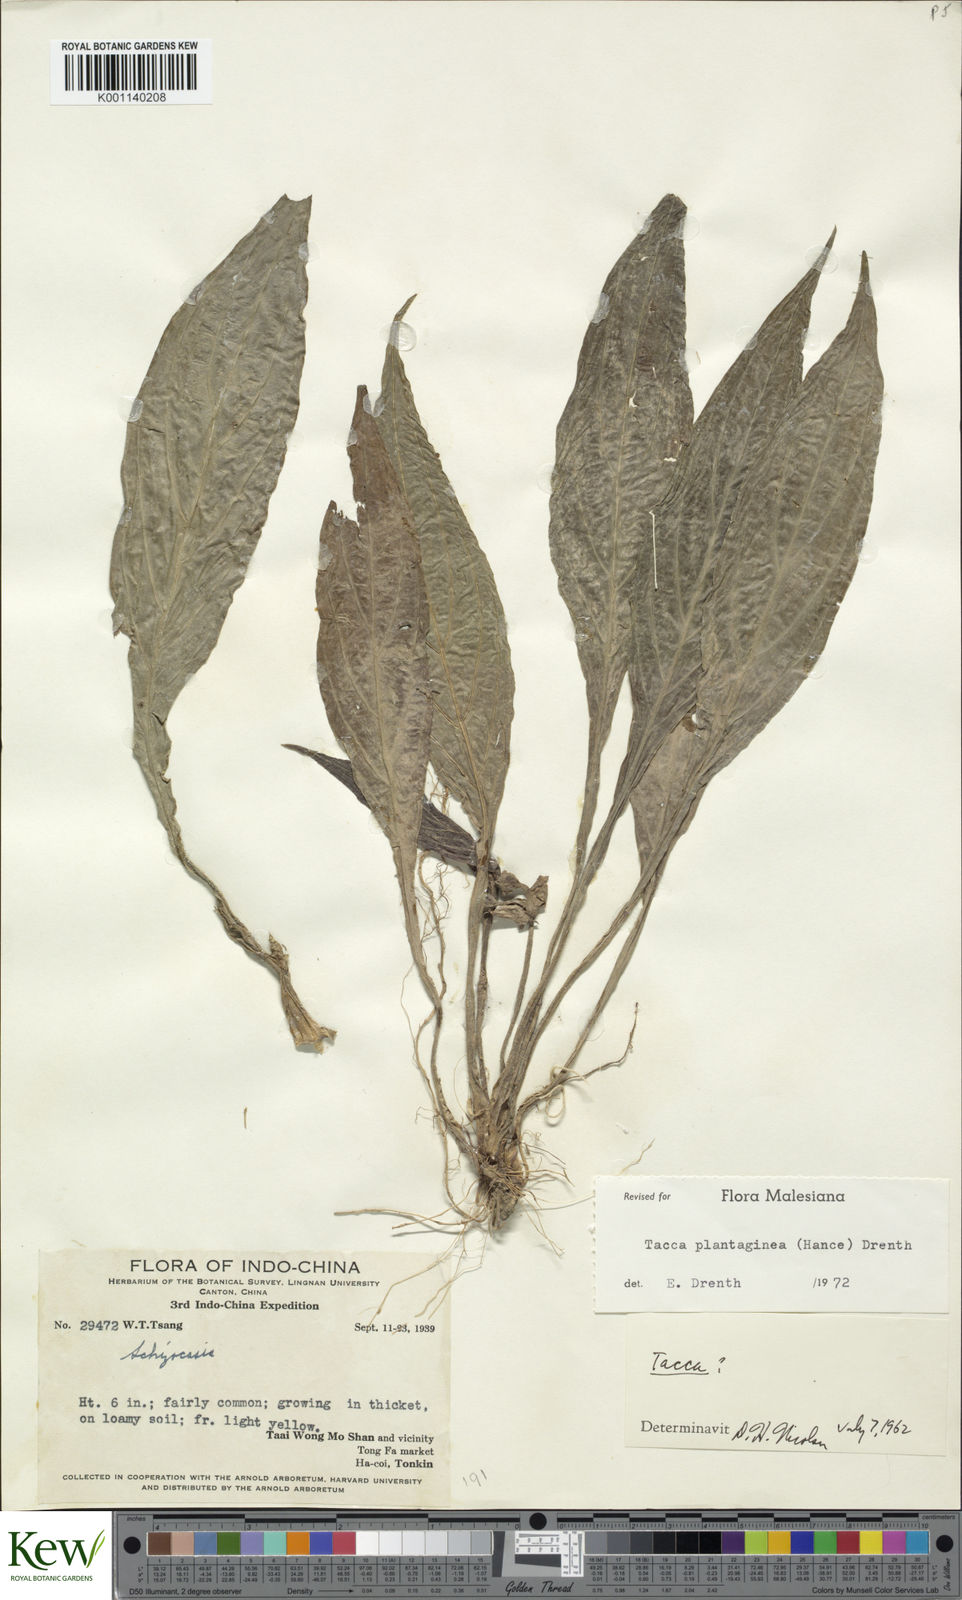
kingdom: Plantae
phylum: Tracheophyta
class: Liliopsida
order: Dioscoreales
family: Dioscoreaceae
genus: Tacca
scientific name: Tacca plantaginea
